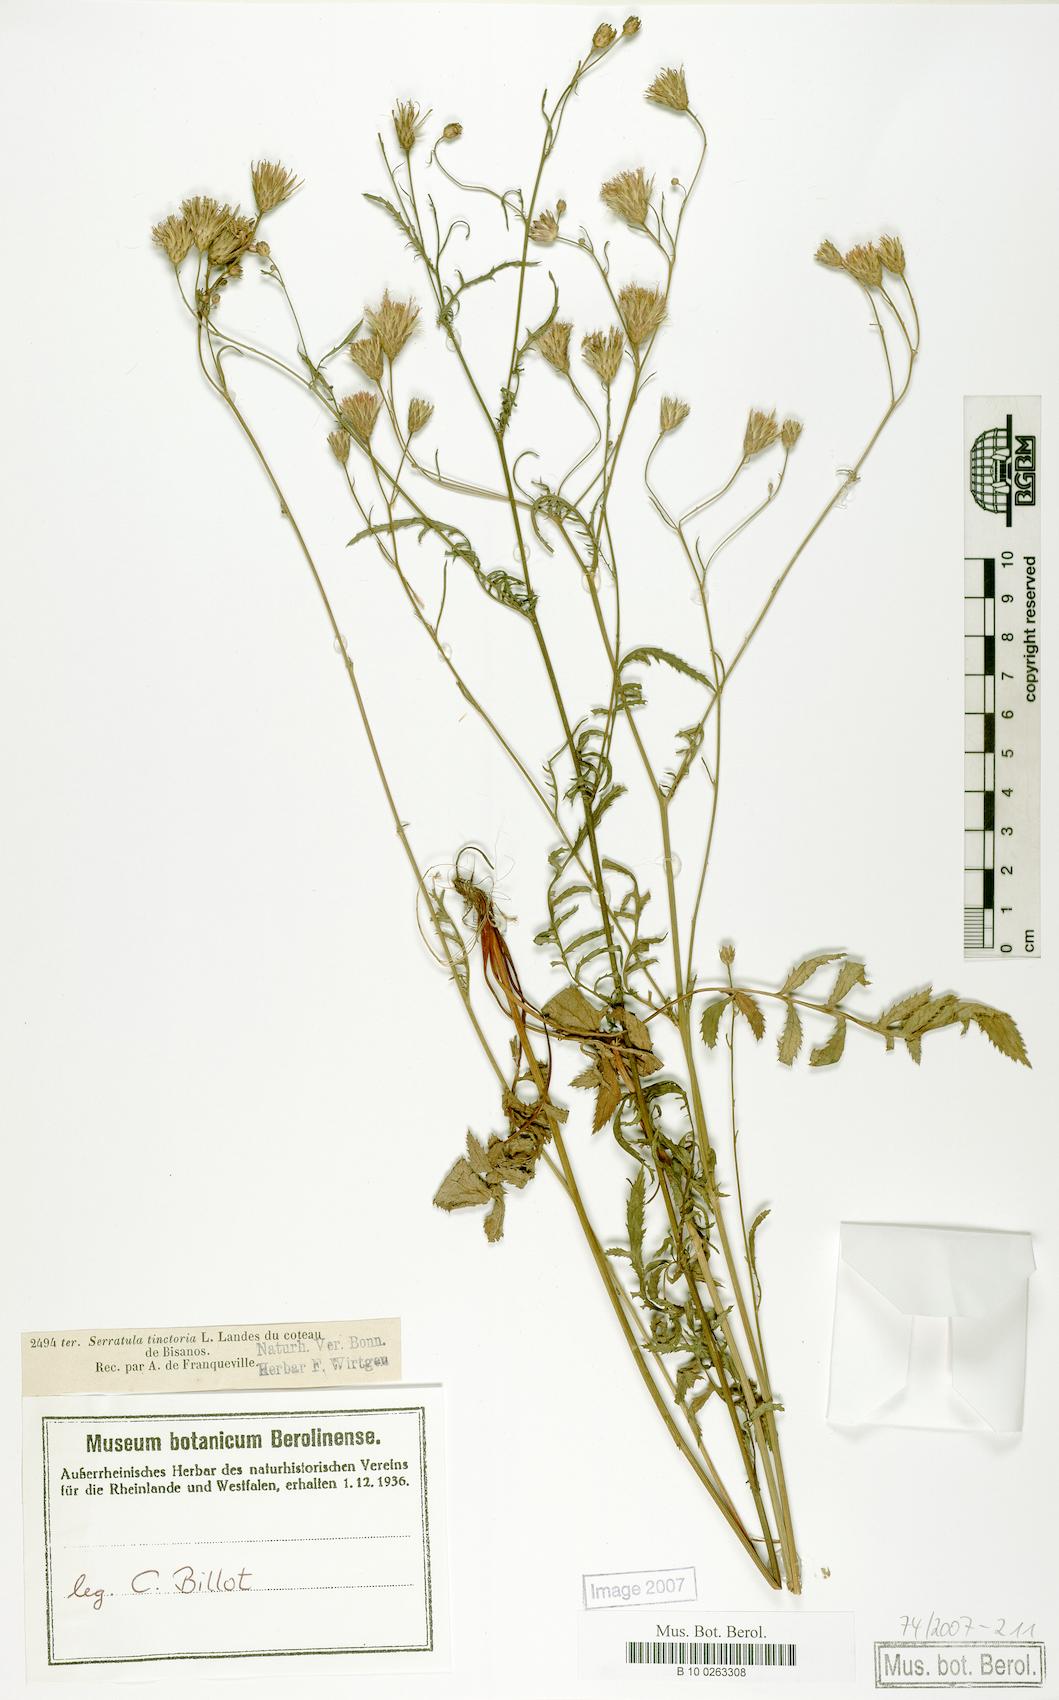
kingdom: Plantae
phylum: Tracheophyta
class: Magnoliopsida
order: Asterales
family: Asteraceae
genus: Serratula
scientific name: Serratula tinctoria
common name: Saw-wort
